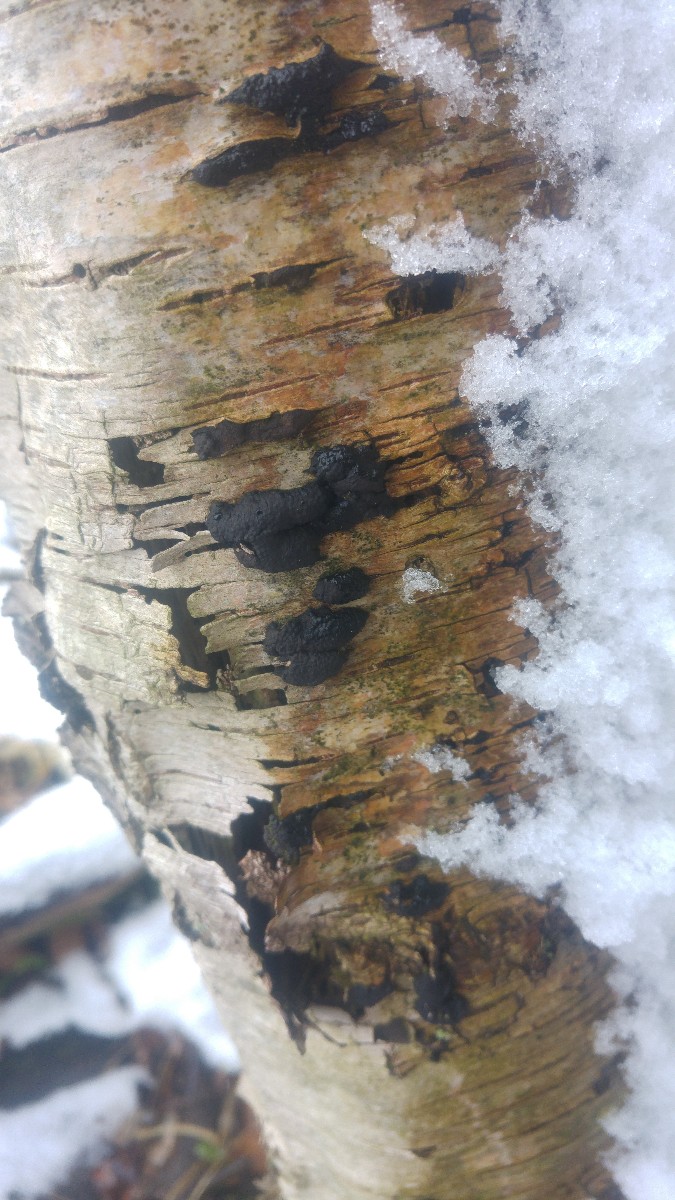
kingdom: Fungi
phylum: Ascomycota
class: Sordariomycetes
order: Xylariales
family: Hypoxylaceae
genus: Jackrogersella
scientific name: Jackrogersella multiformis
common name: foranderlig kulbær
